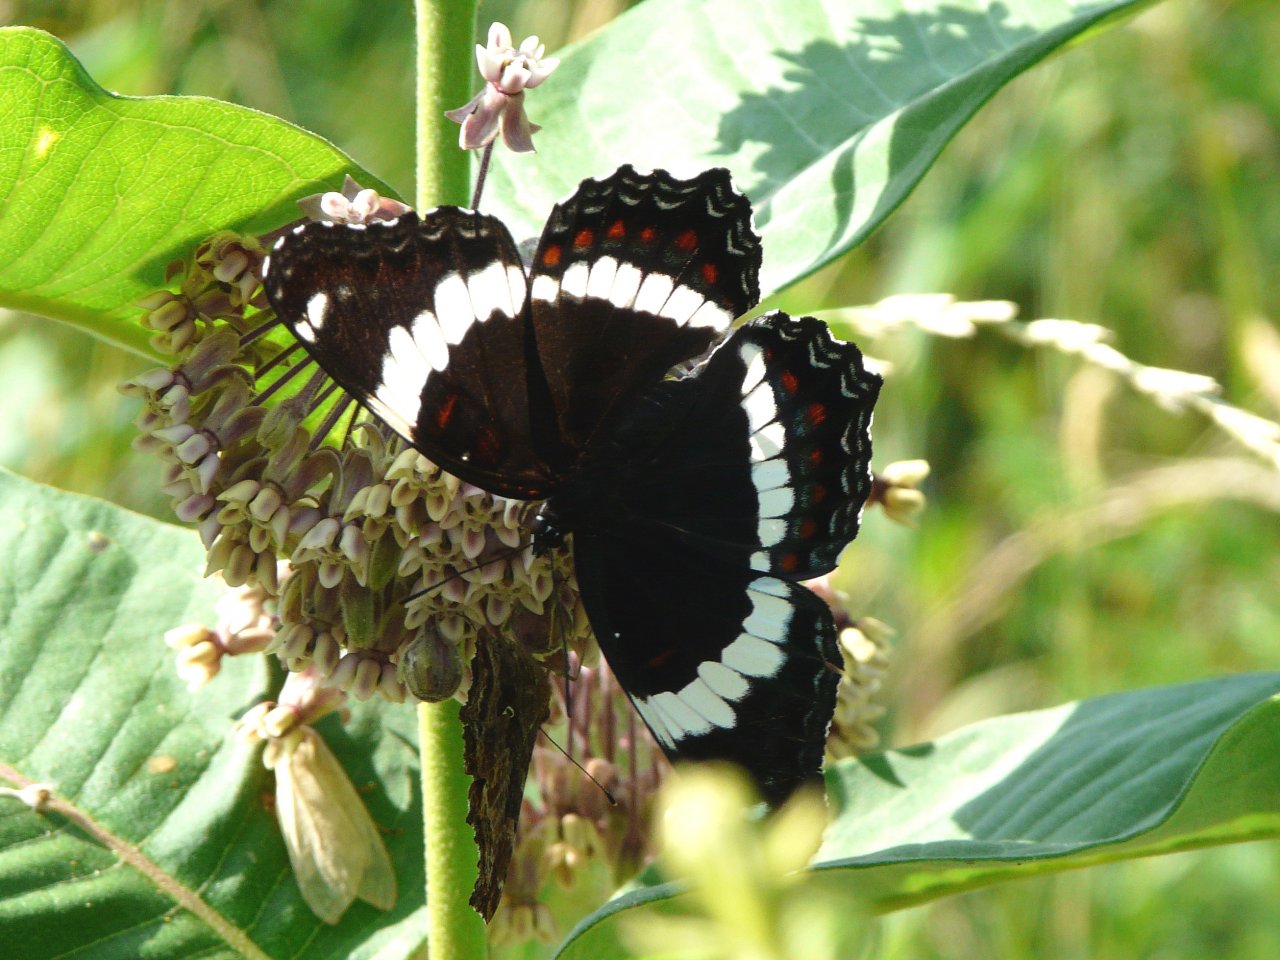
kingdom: Animalia
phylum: Arthropoda
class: Insecta
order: Lepidoptera
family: Nymphalidae
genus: Limenitis
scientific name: Limenitis arthemis
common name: Red-spotted Admiral
